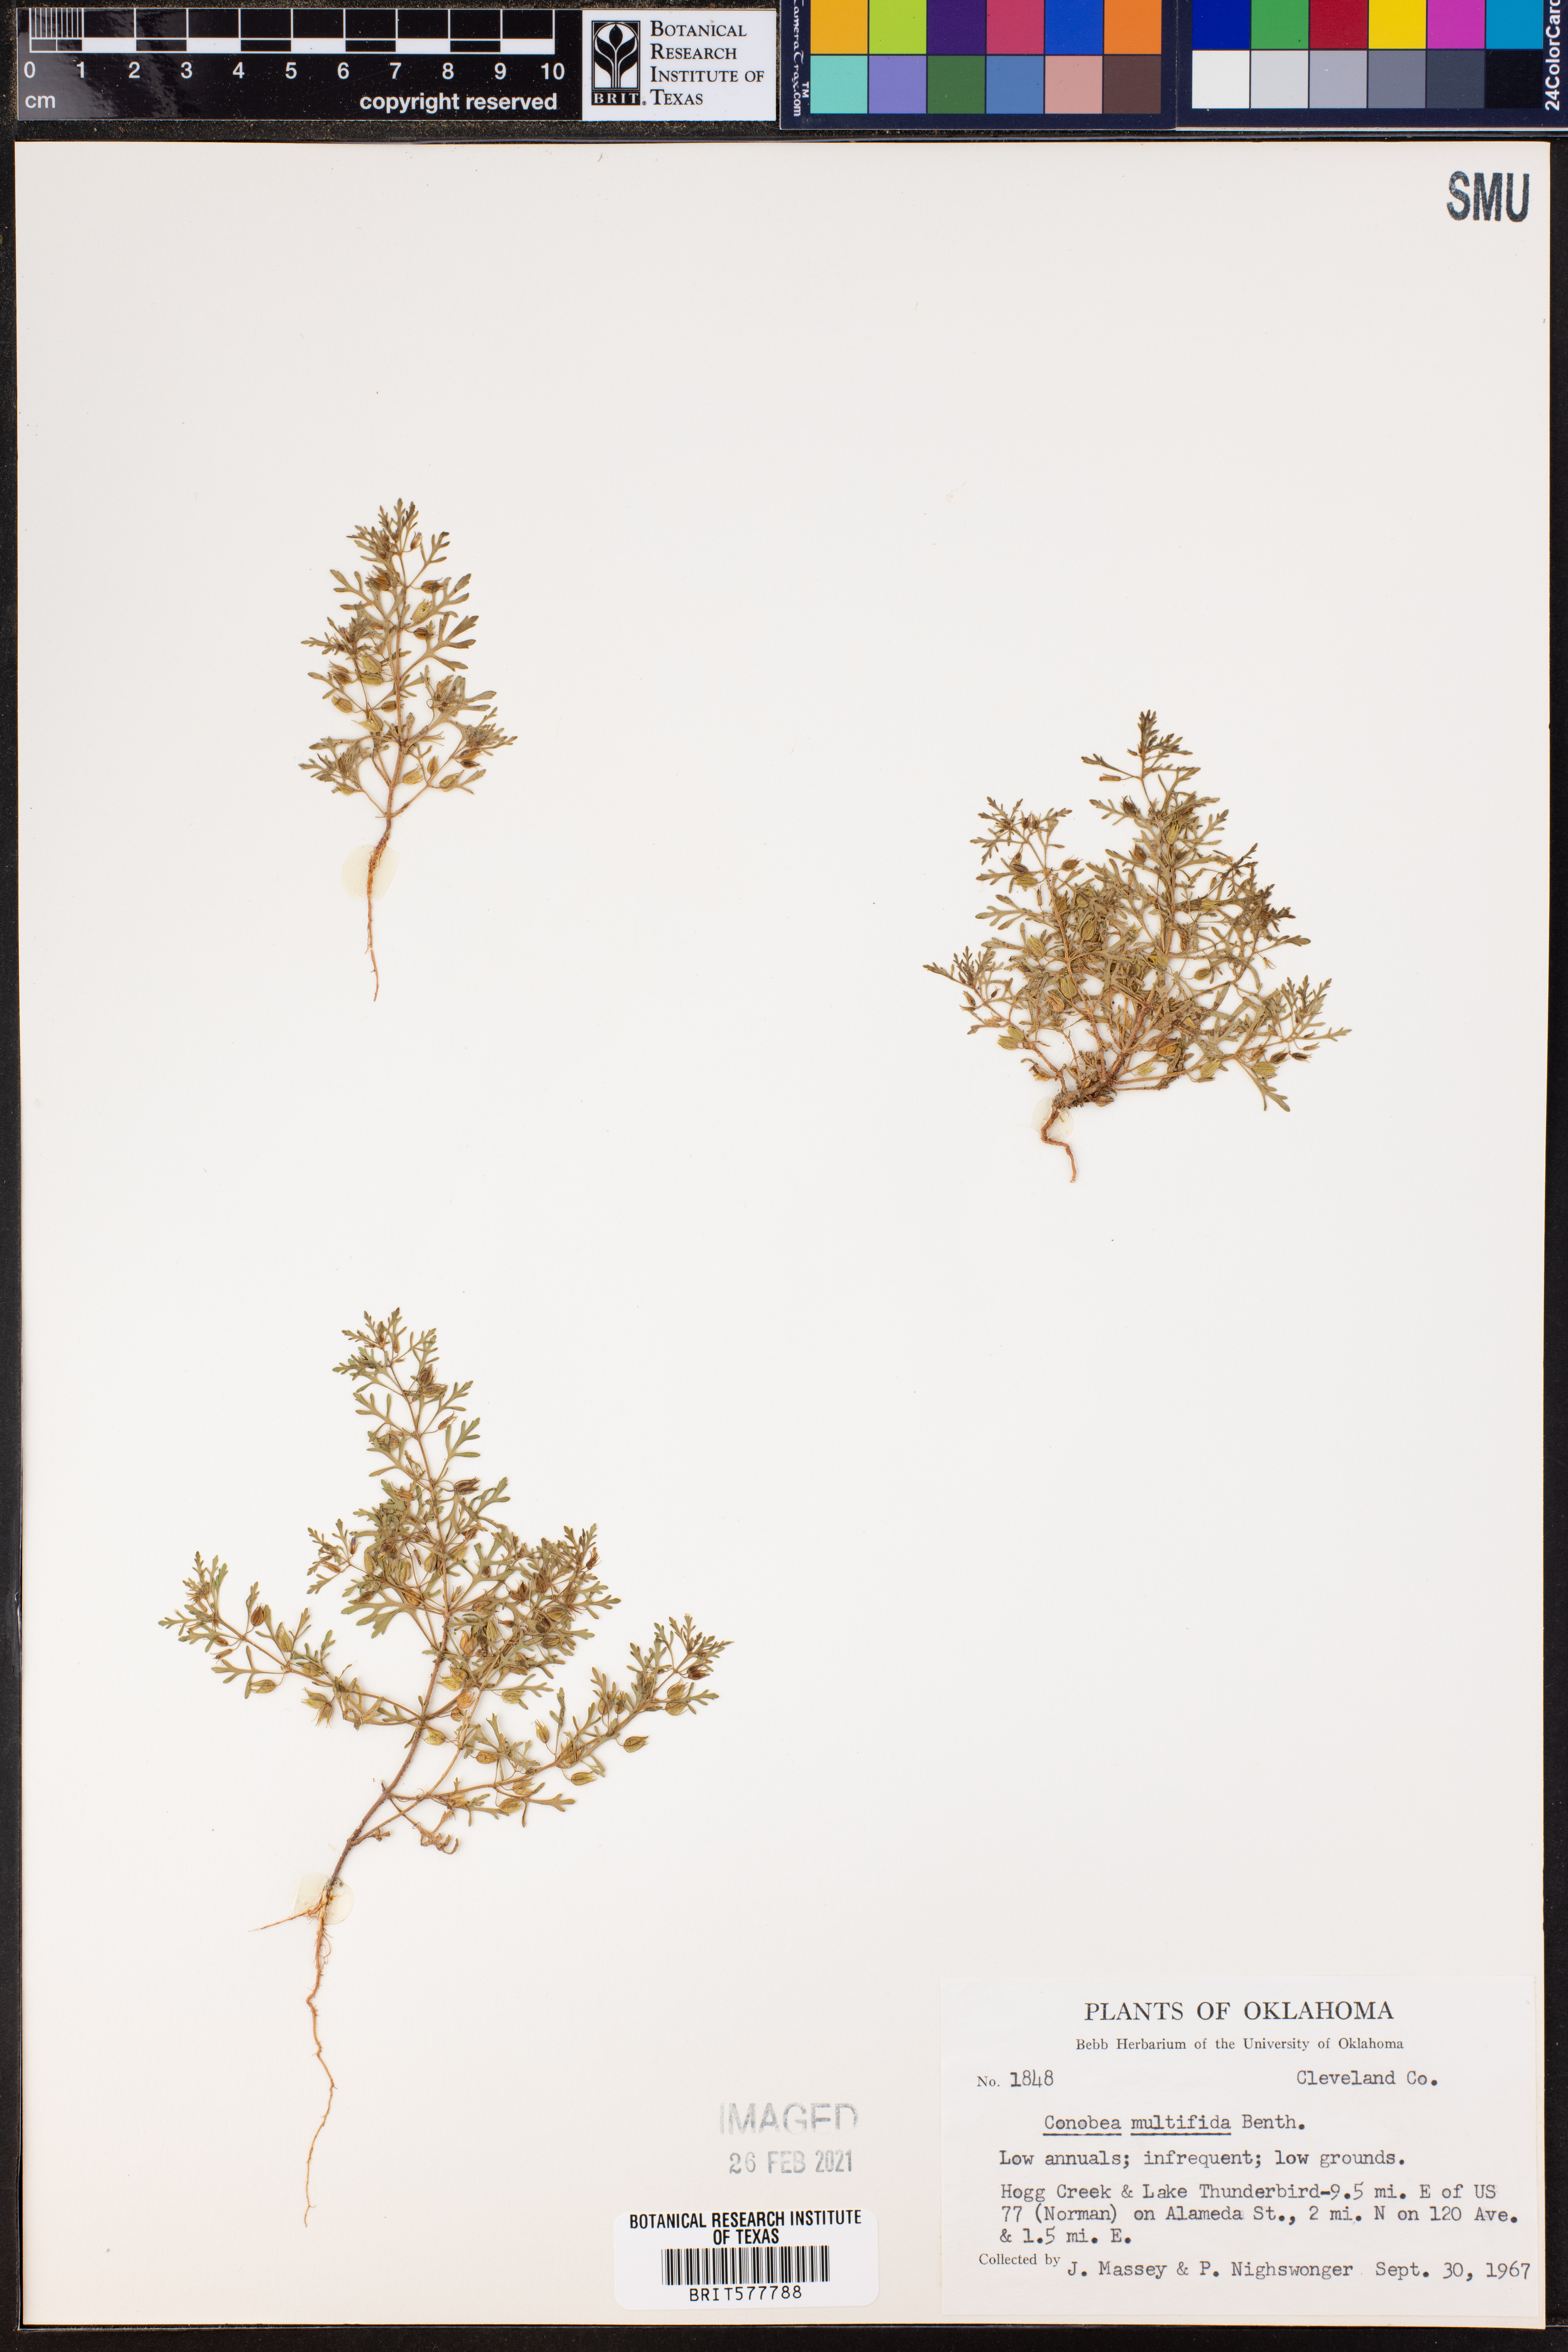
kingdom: Plantae
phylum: Tracheophyta
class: Magnoliopsida
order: Lamiales
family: Plantaginaceae
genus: Leucospora
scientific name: Leucospora multifida
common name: Narrow-leaf paleseed
